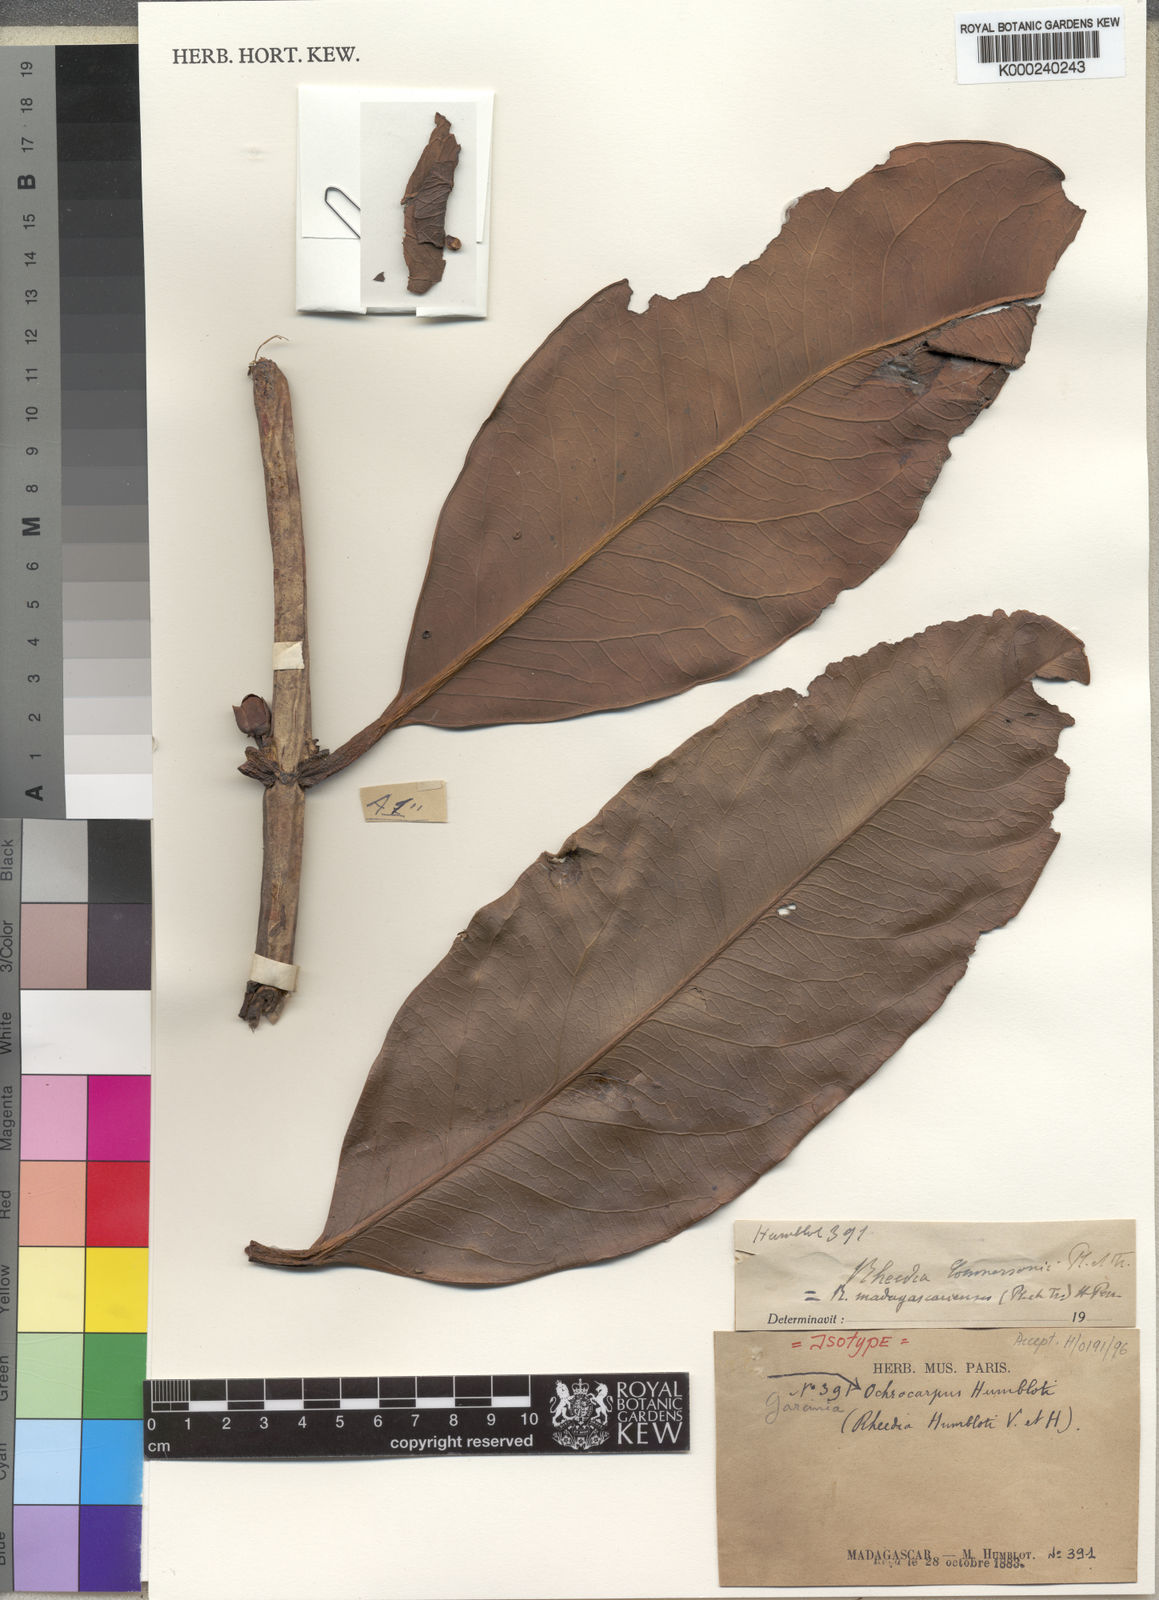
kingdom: Plantae
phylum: Tracheophyta
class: Magnoliopsida
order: Malpighiales
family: Clusiaceae
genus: Garcinia
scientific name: Garcinia madagascariensis
